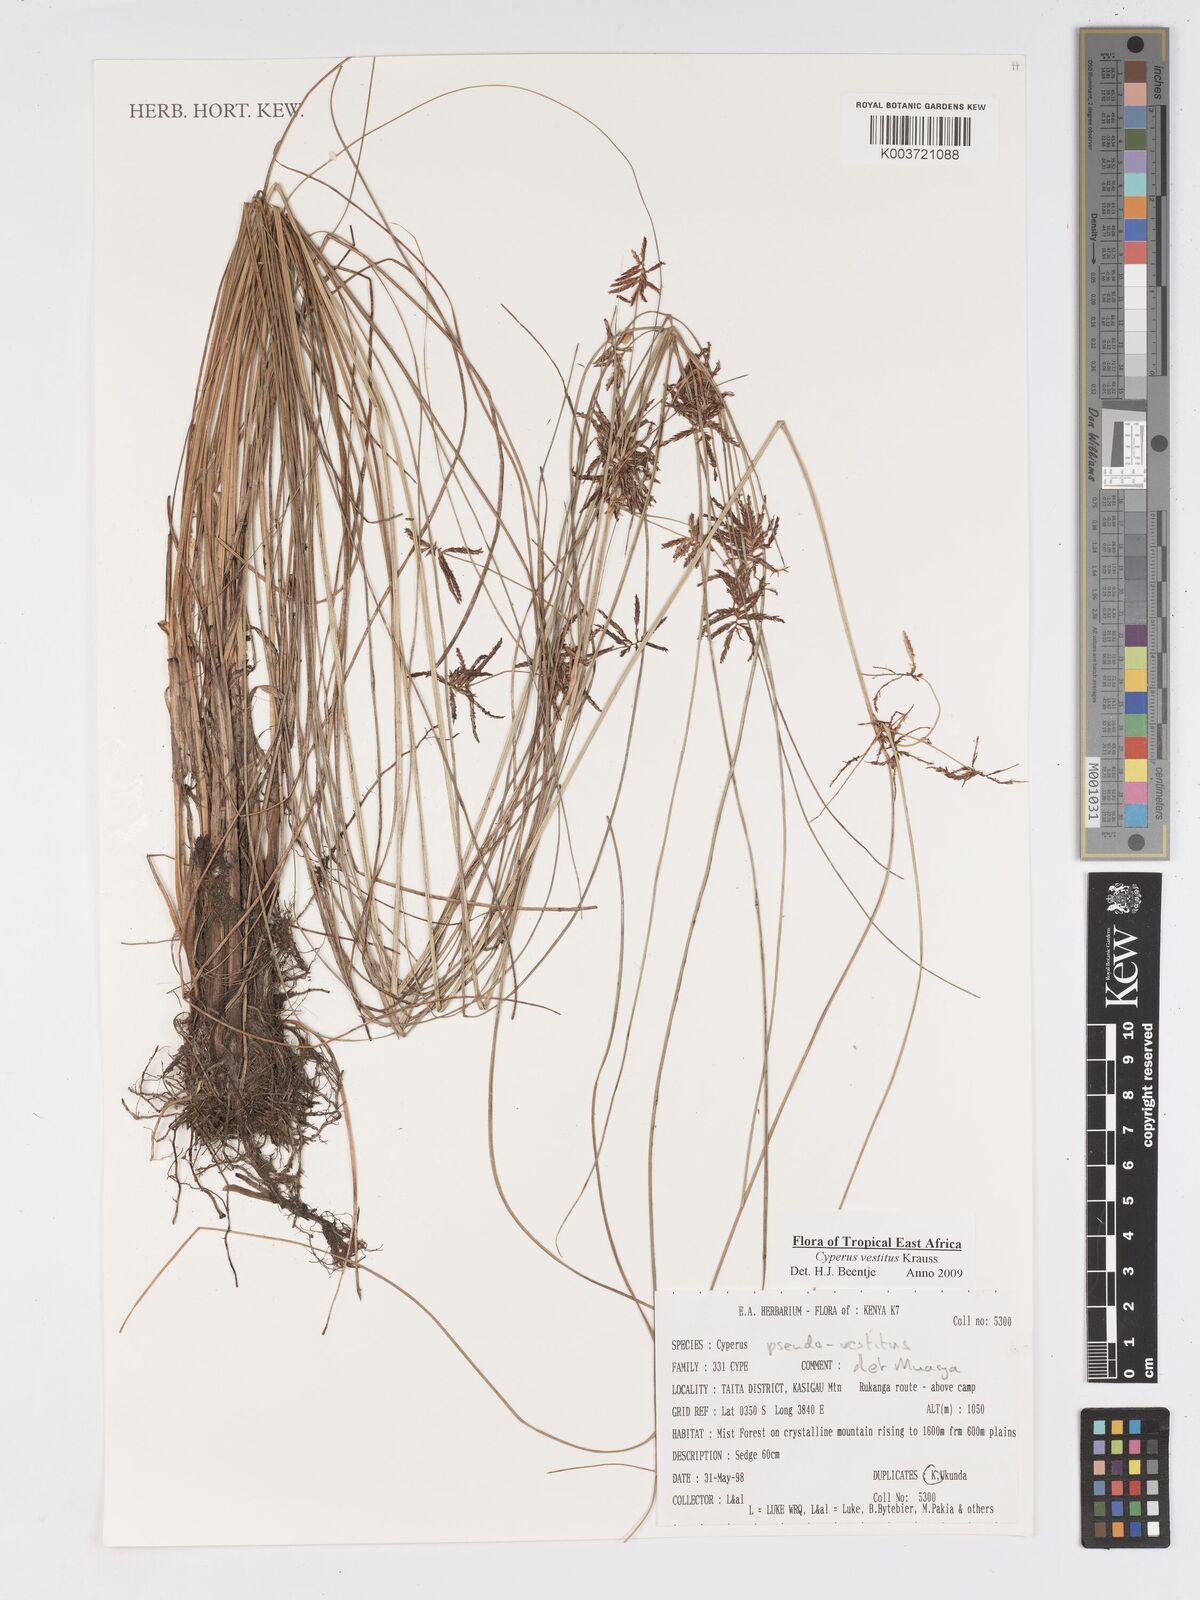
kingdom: Plantae
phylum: Tracheophyta
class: Liliopsida
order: Poales
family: Cyperaceae
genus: Cyperus
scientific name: Cyperus vestitus
